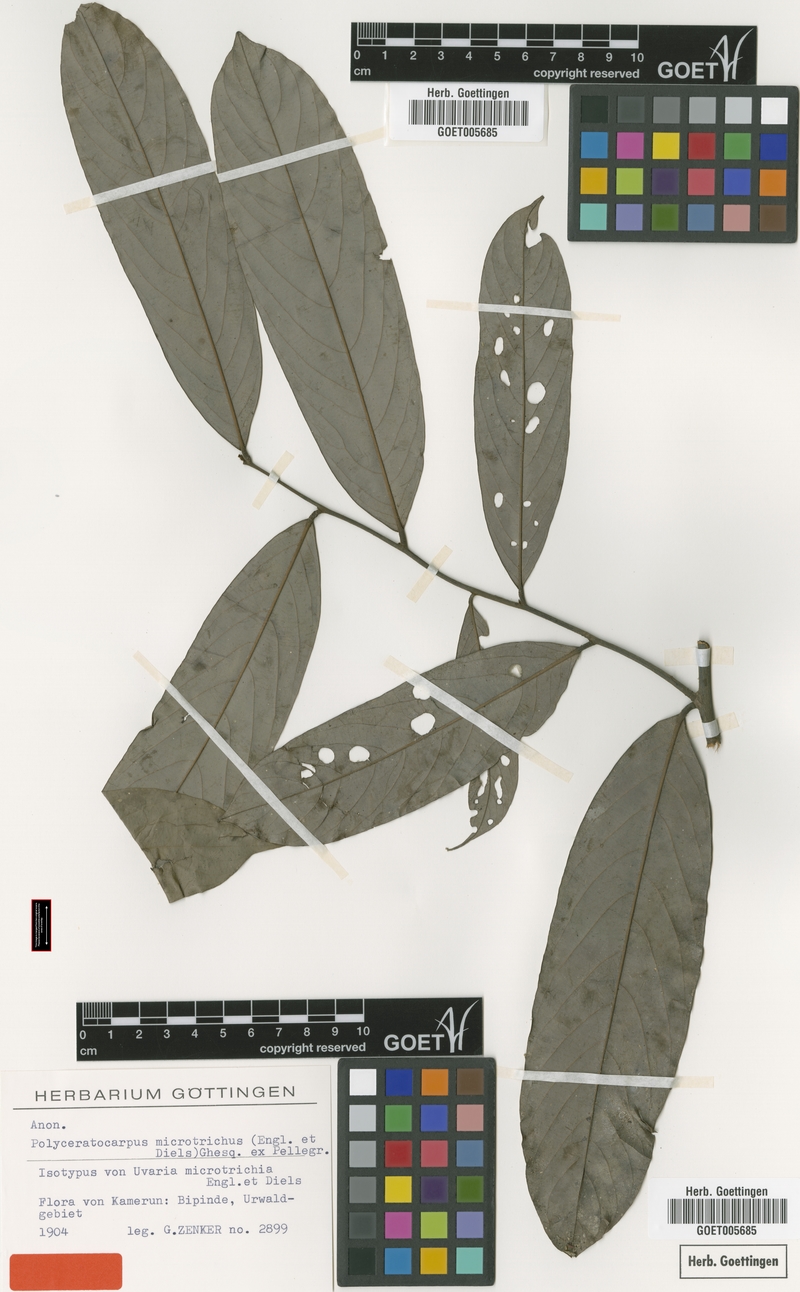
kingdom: Plantae
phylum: Tracheophyta
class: Magnoliopsida
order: Magnoliales
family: Annonaceae
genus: Polyceratocarpus
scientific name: Polyceratocarpus microtrichus
